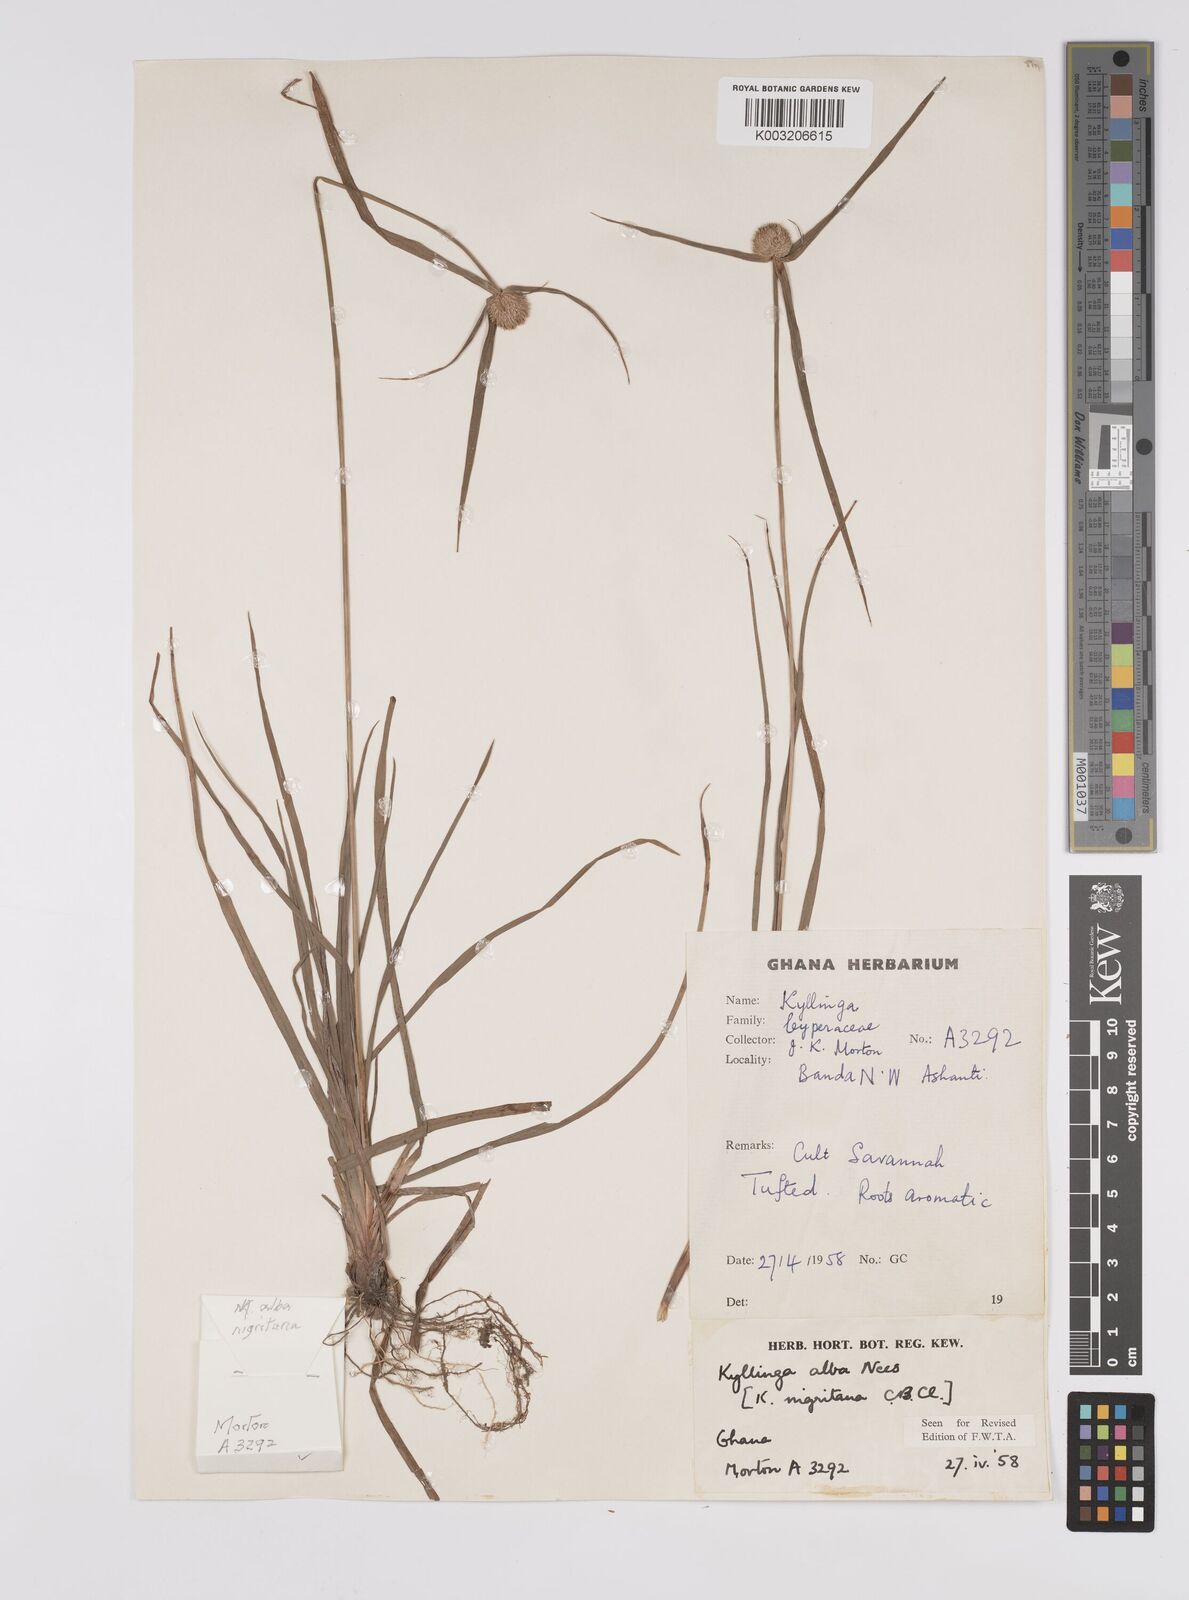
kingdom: Plantae
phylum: Tracheophyta
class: Liliopsida
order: Poales
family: Cyperaceae
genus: Cyperus
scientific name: Cyperus alatus
